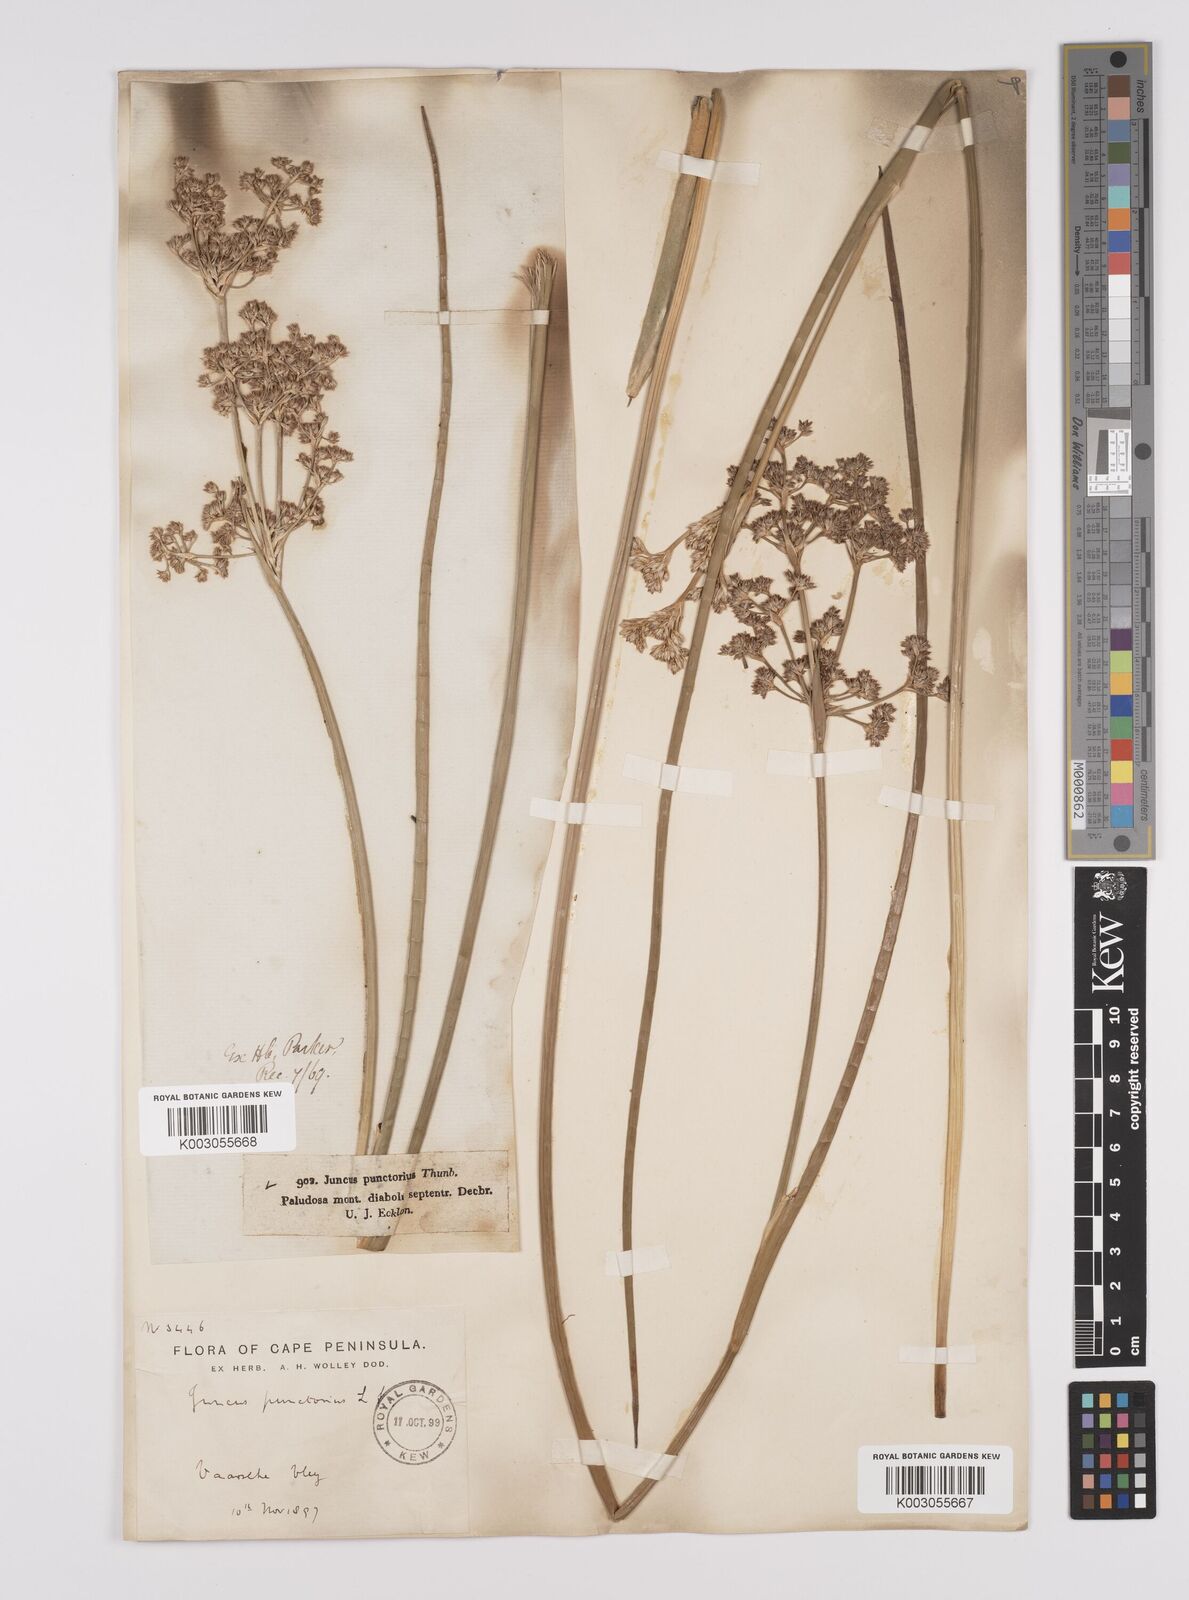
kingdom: Plantae
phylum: Tracheophyta
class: Liliopsida
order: Poales
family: Juncaceae
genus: Juncus
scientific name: Juncus punctorius
